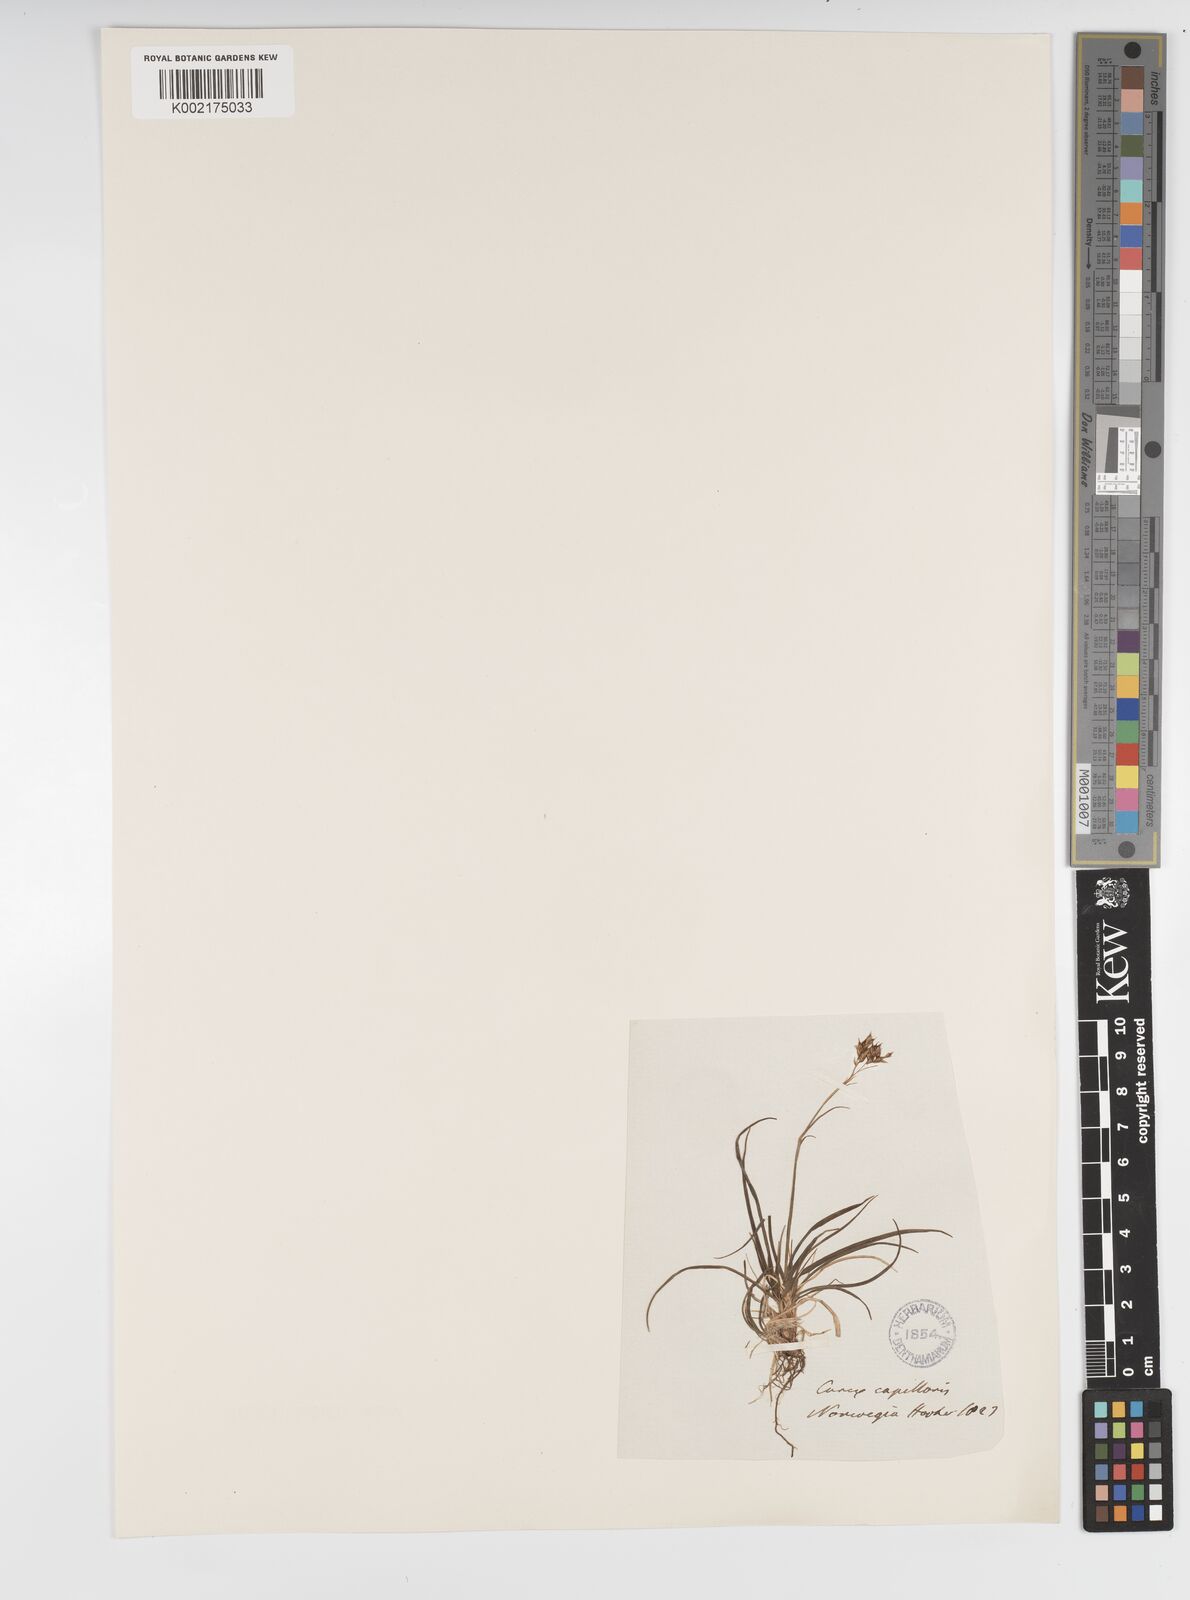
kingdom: Plantae
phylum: Tracheophyta
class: Liliopsida
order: Poales
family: Cyperaceae
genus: Carex
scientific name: Carex capillaris
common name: Hair sedge
